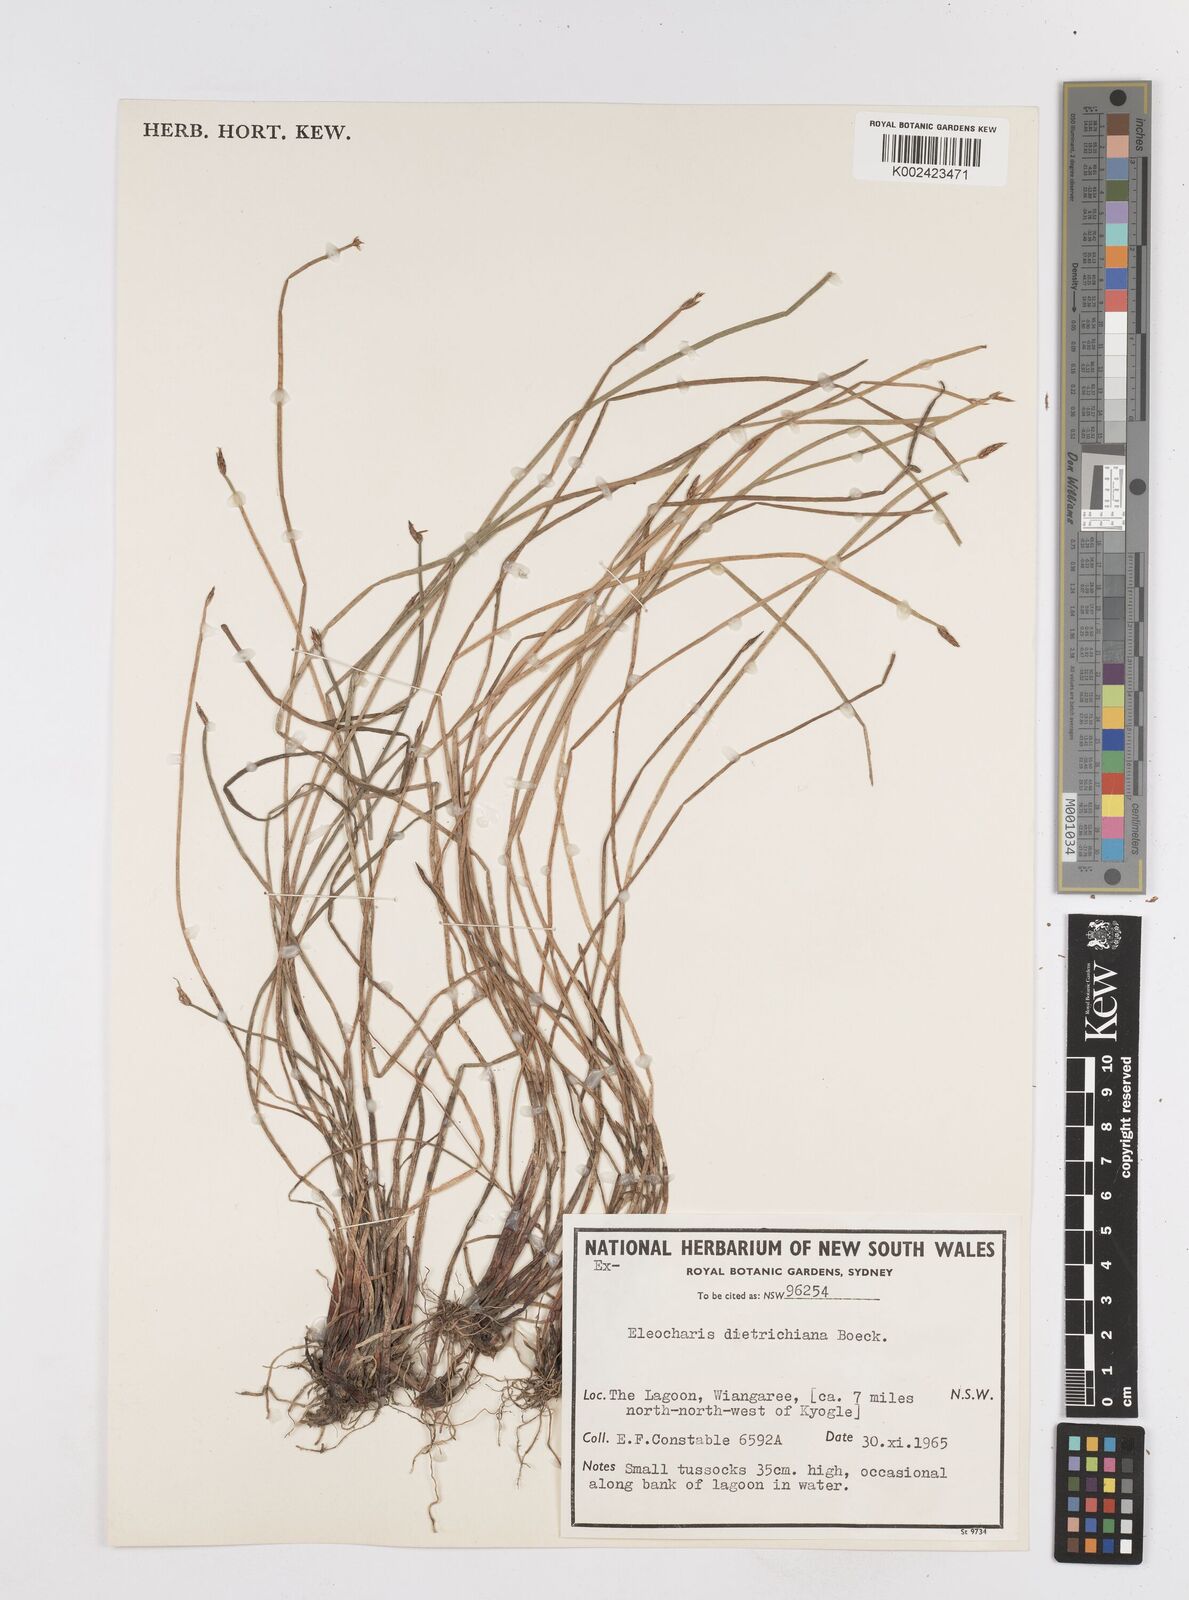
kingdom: Plantae
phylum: Tracheophyta
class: Liliopsida
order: Poales
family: Cyperaceae
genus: Eleocharis
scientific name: Eleocharis dietrichiana
